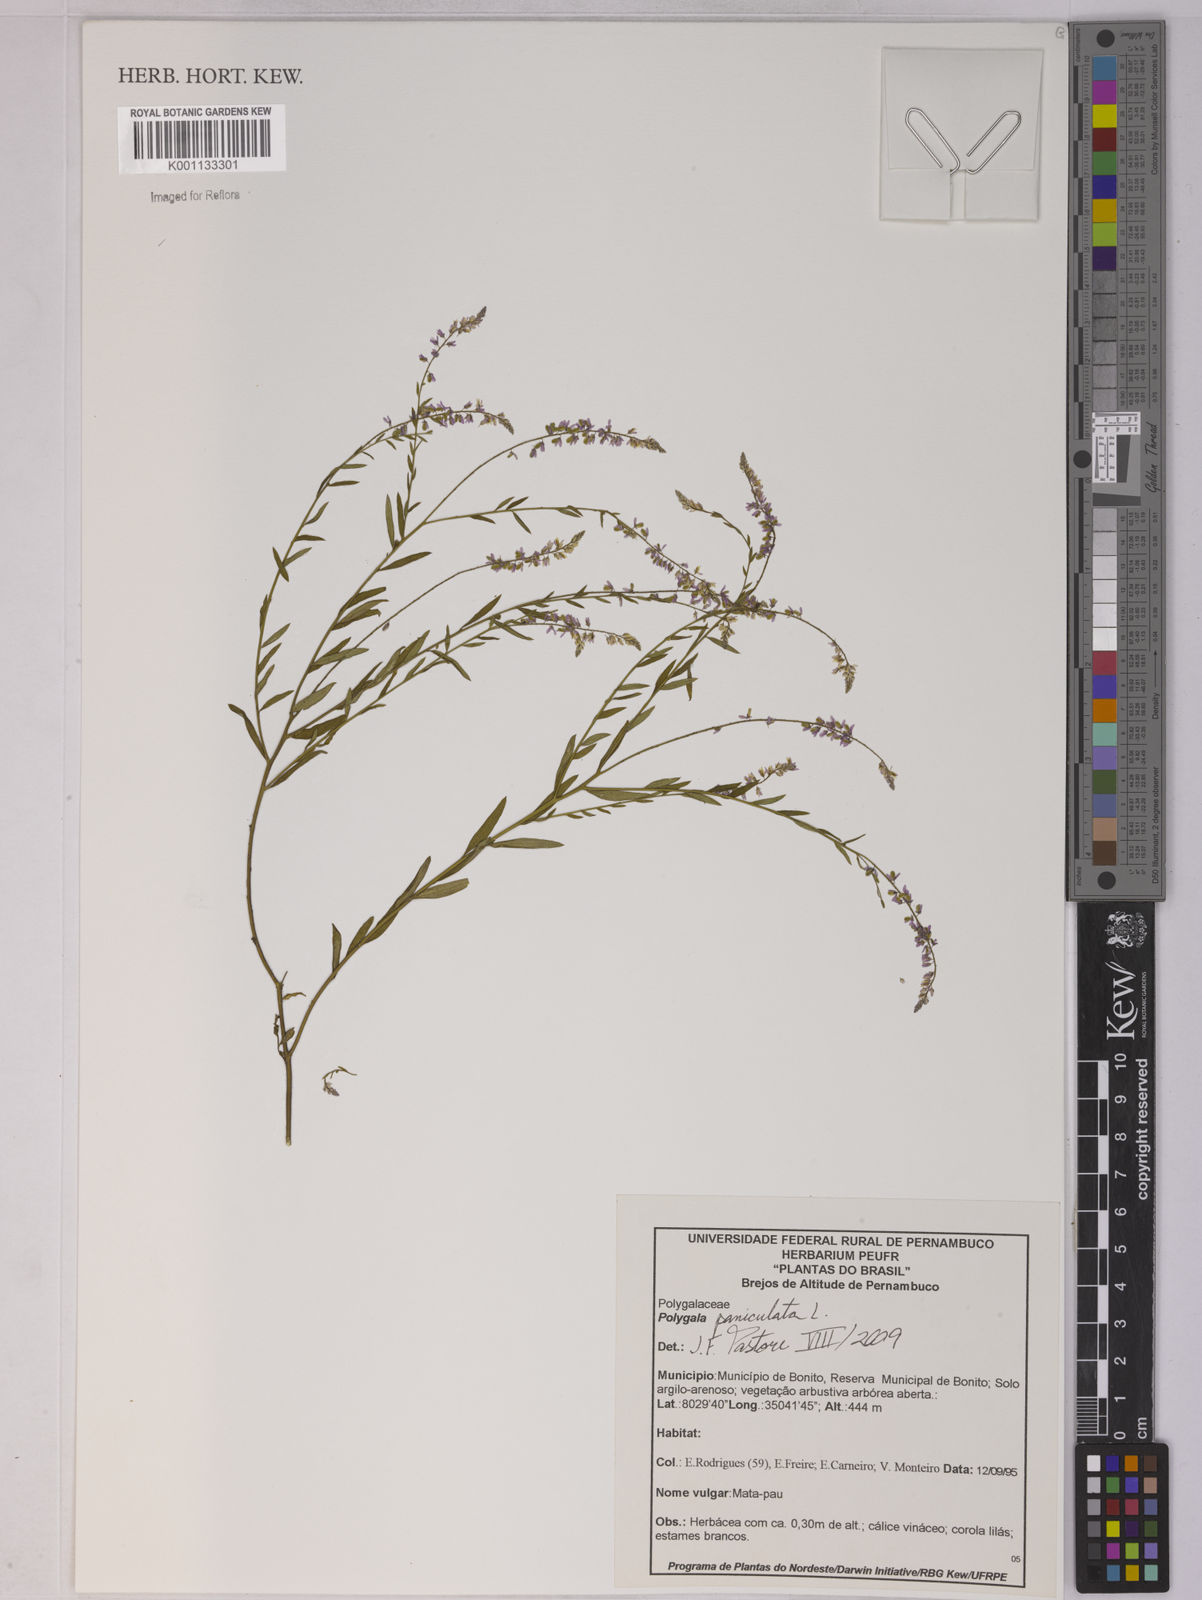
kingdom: Plantae
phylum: Tracheophyta
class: Magnoliopsida
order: Fabales
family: Polygalaceae
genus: Polygala
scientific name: Polygala paniculata
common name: Orosne
